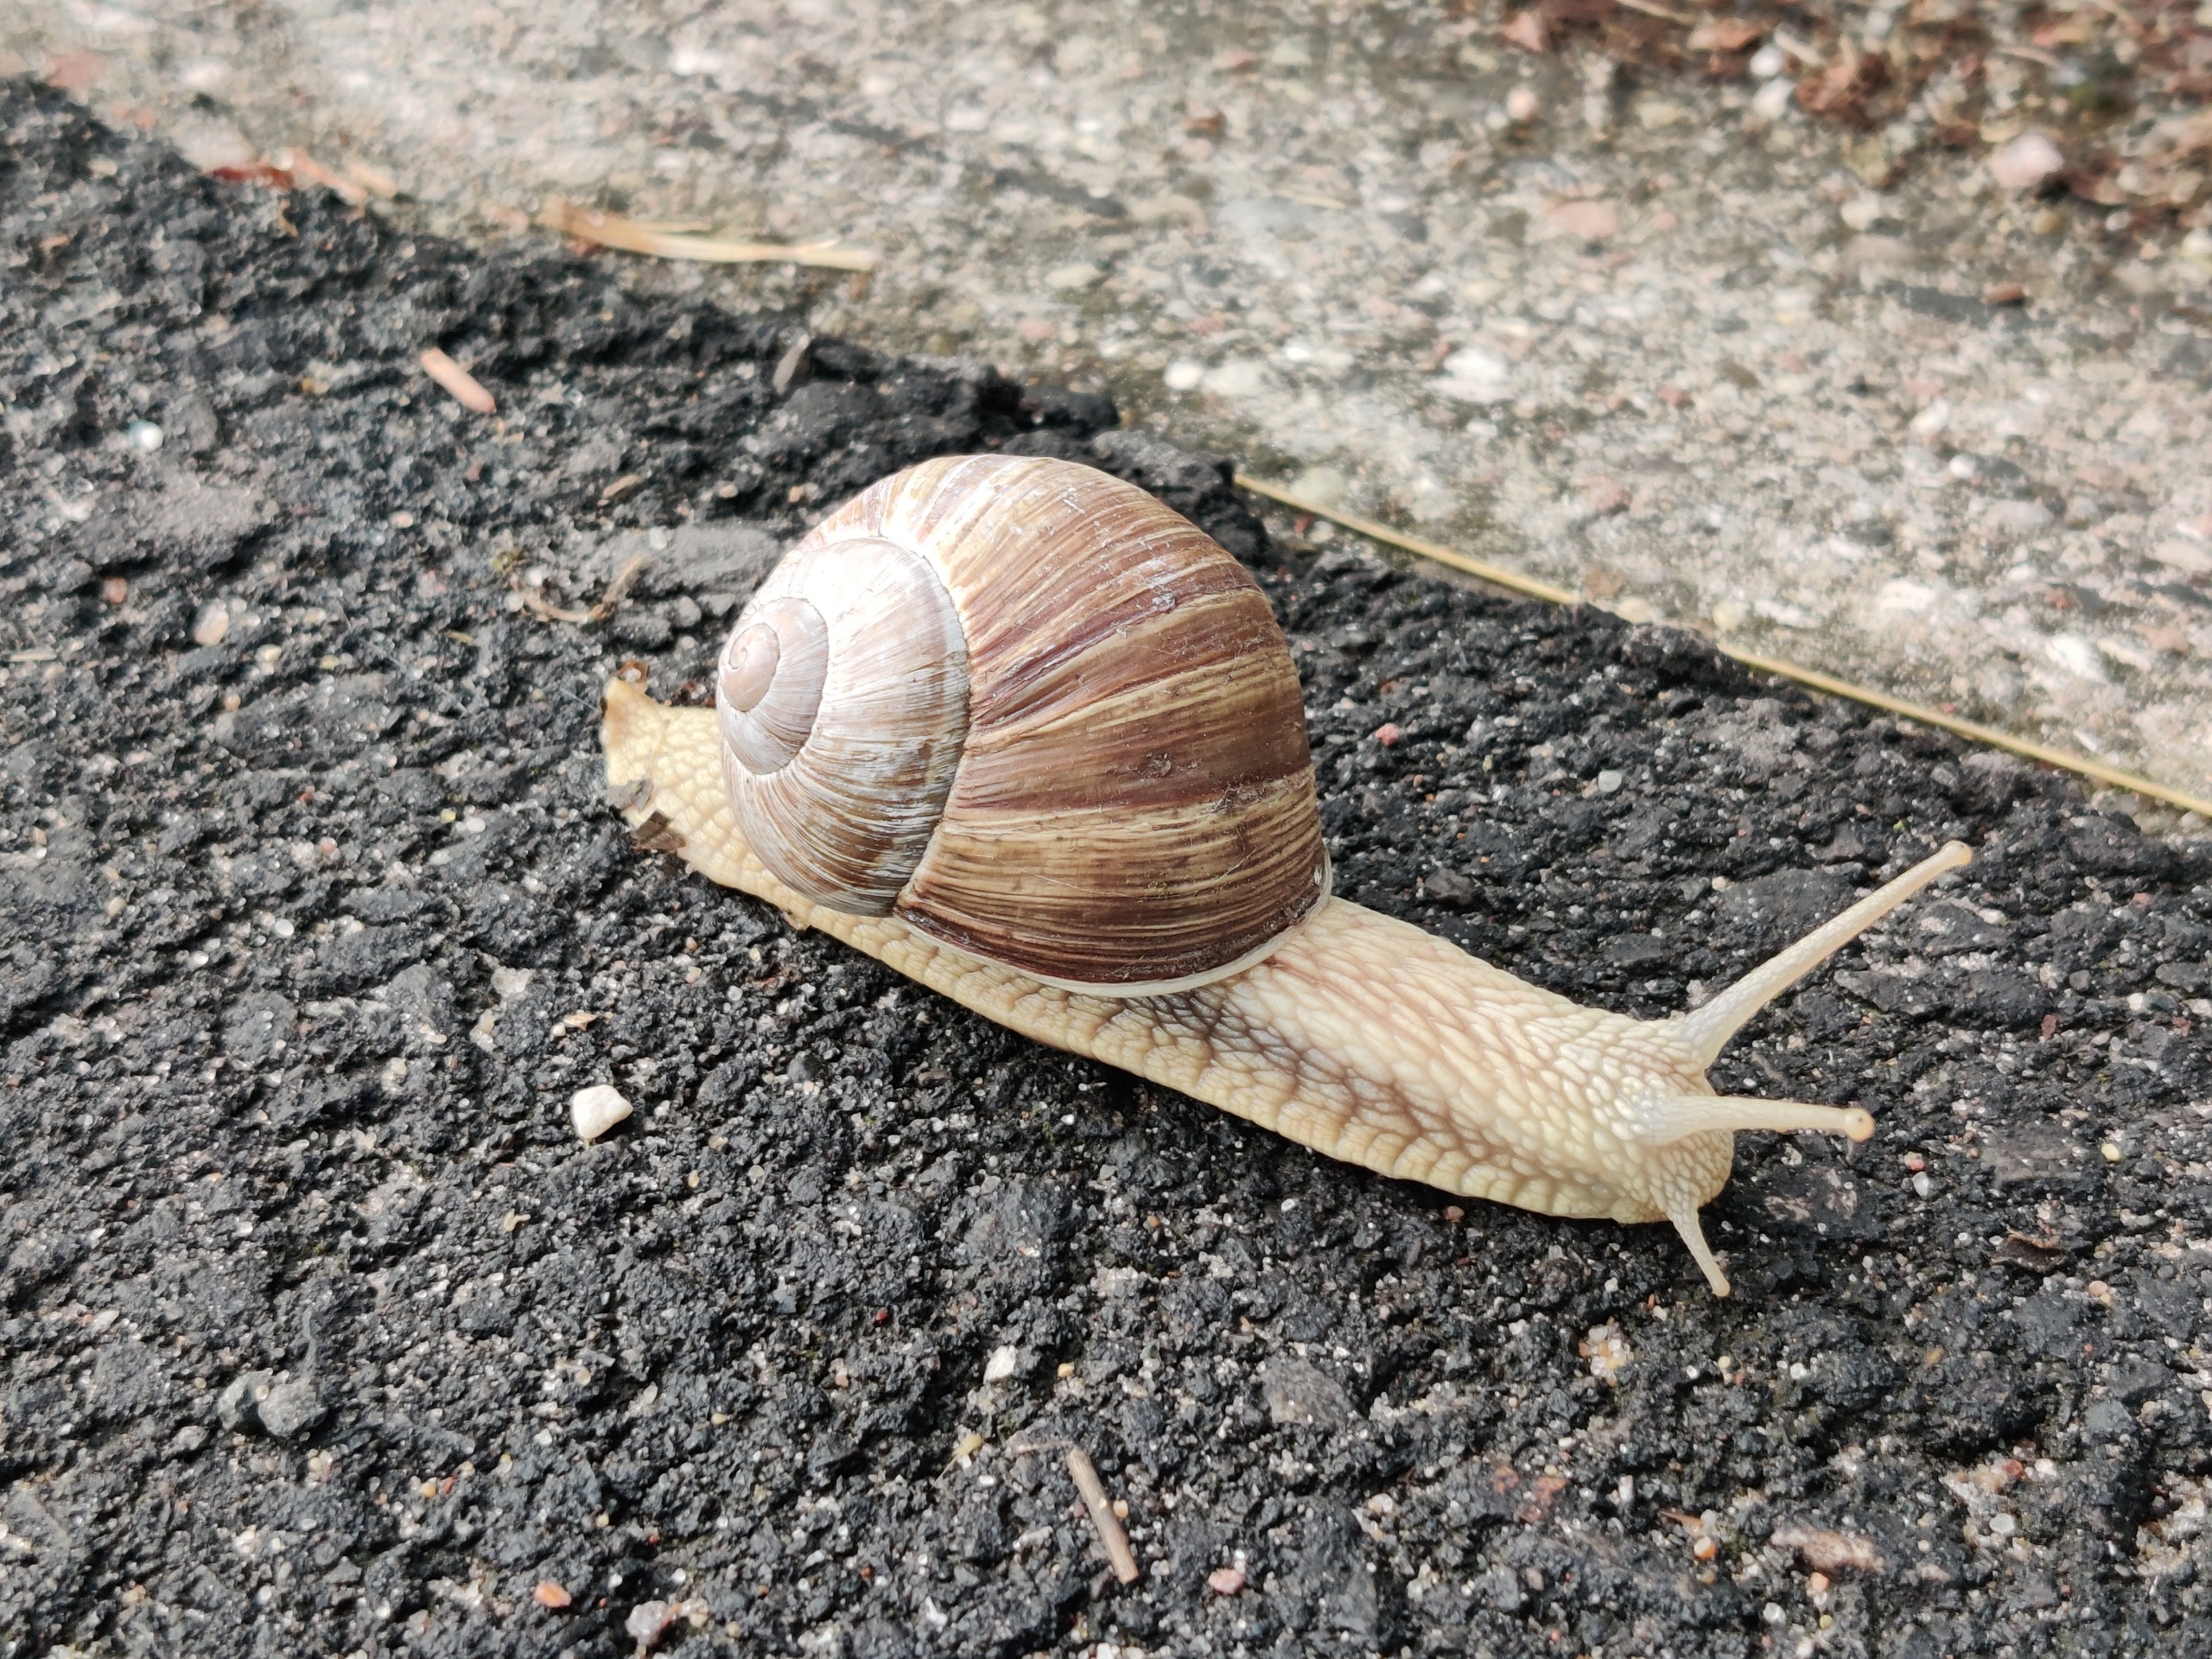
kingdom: Animalia
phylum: Mollusca
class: Gastropoda
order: Stylommatophora
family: Helicidae
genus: Helix
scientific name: Helix pomatia
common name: Vinbjergsnegl
